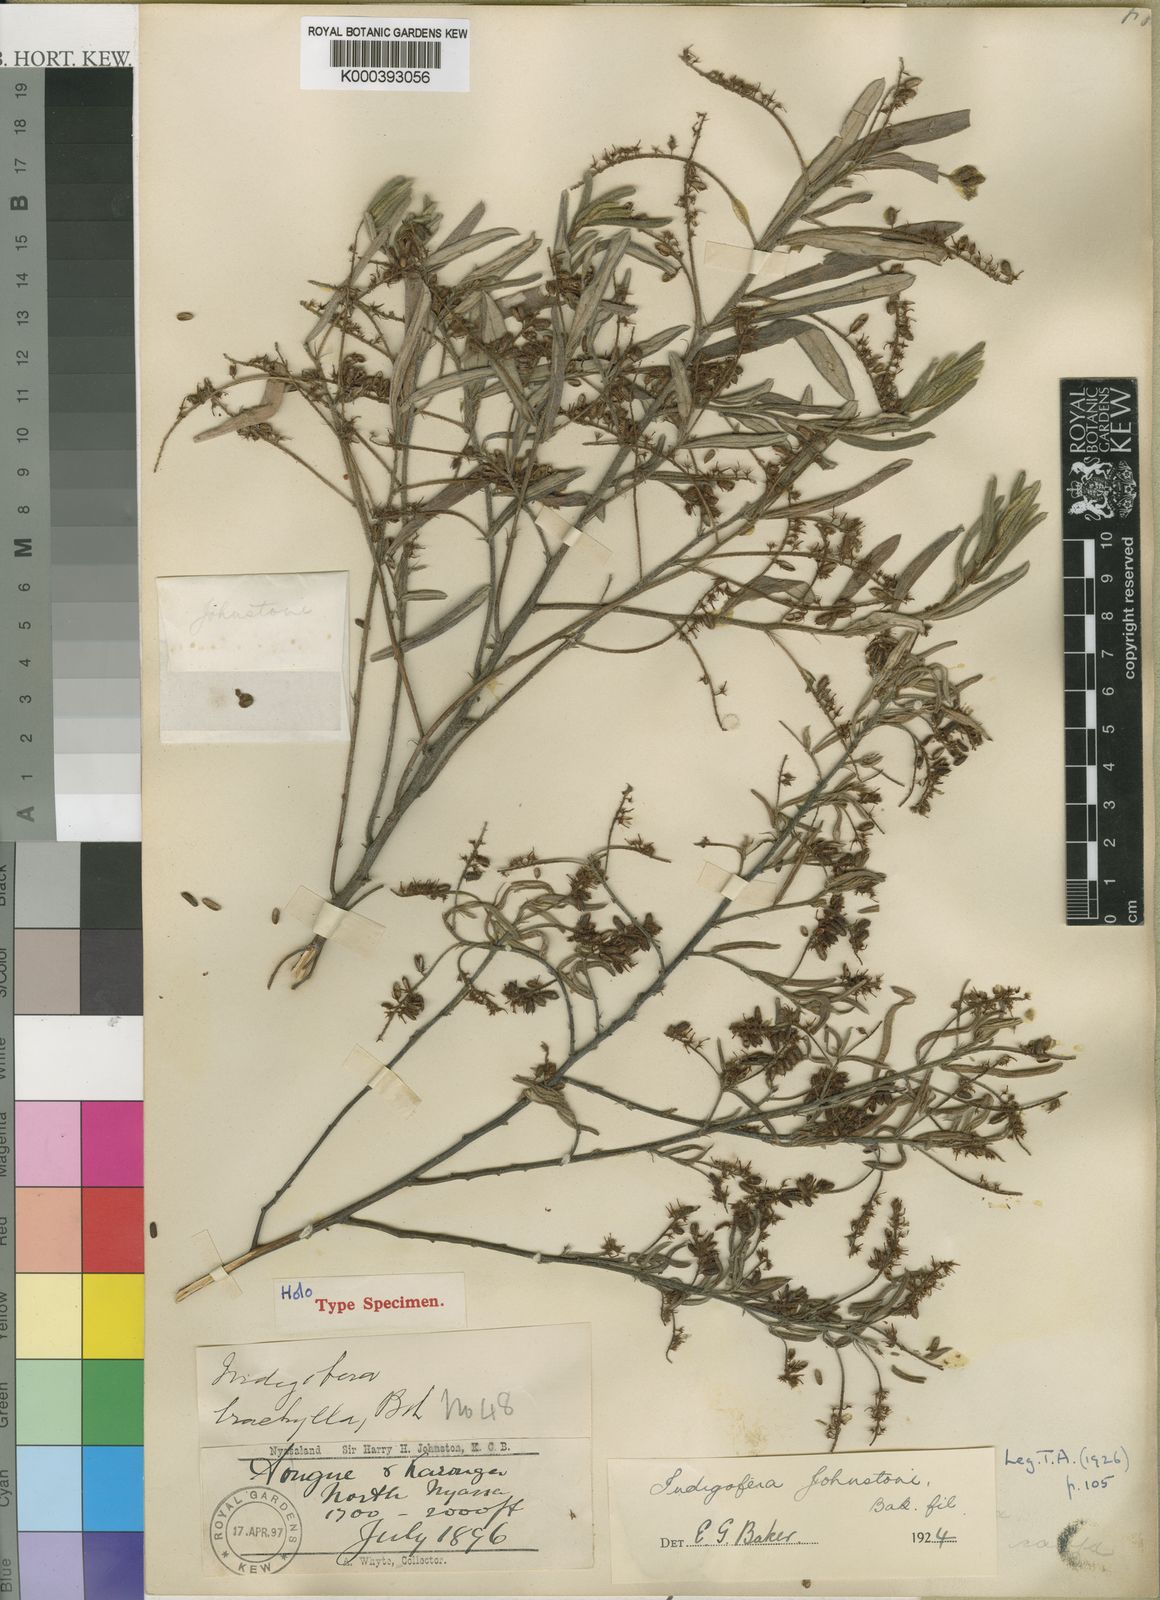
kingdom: Plantae
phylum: Tracheophyta
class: Magnoliopsida
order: Fabales
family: Fabaceae
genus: Indigofera
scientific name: Indigofera trachyphylla
